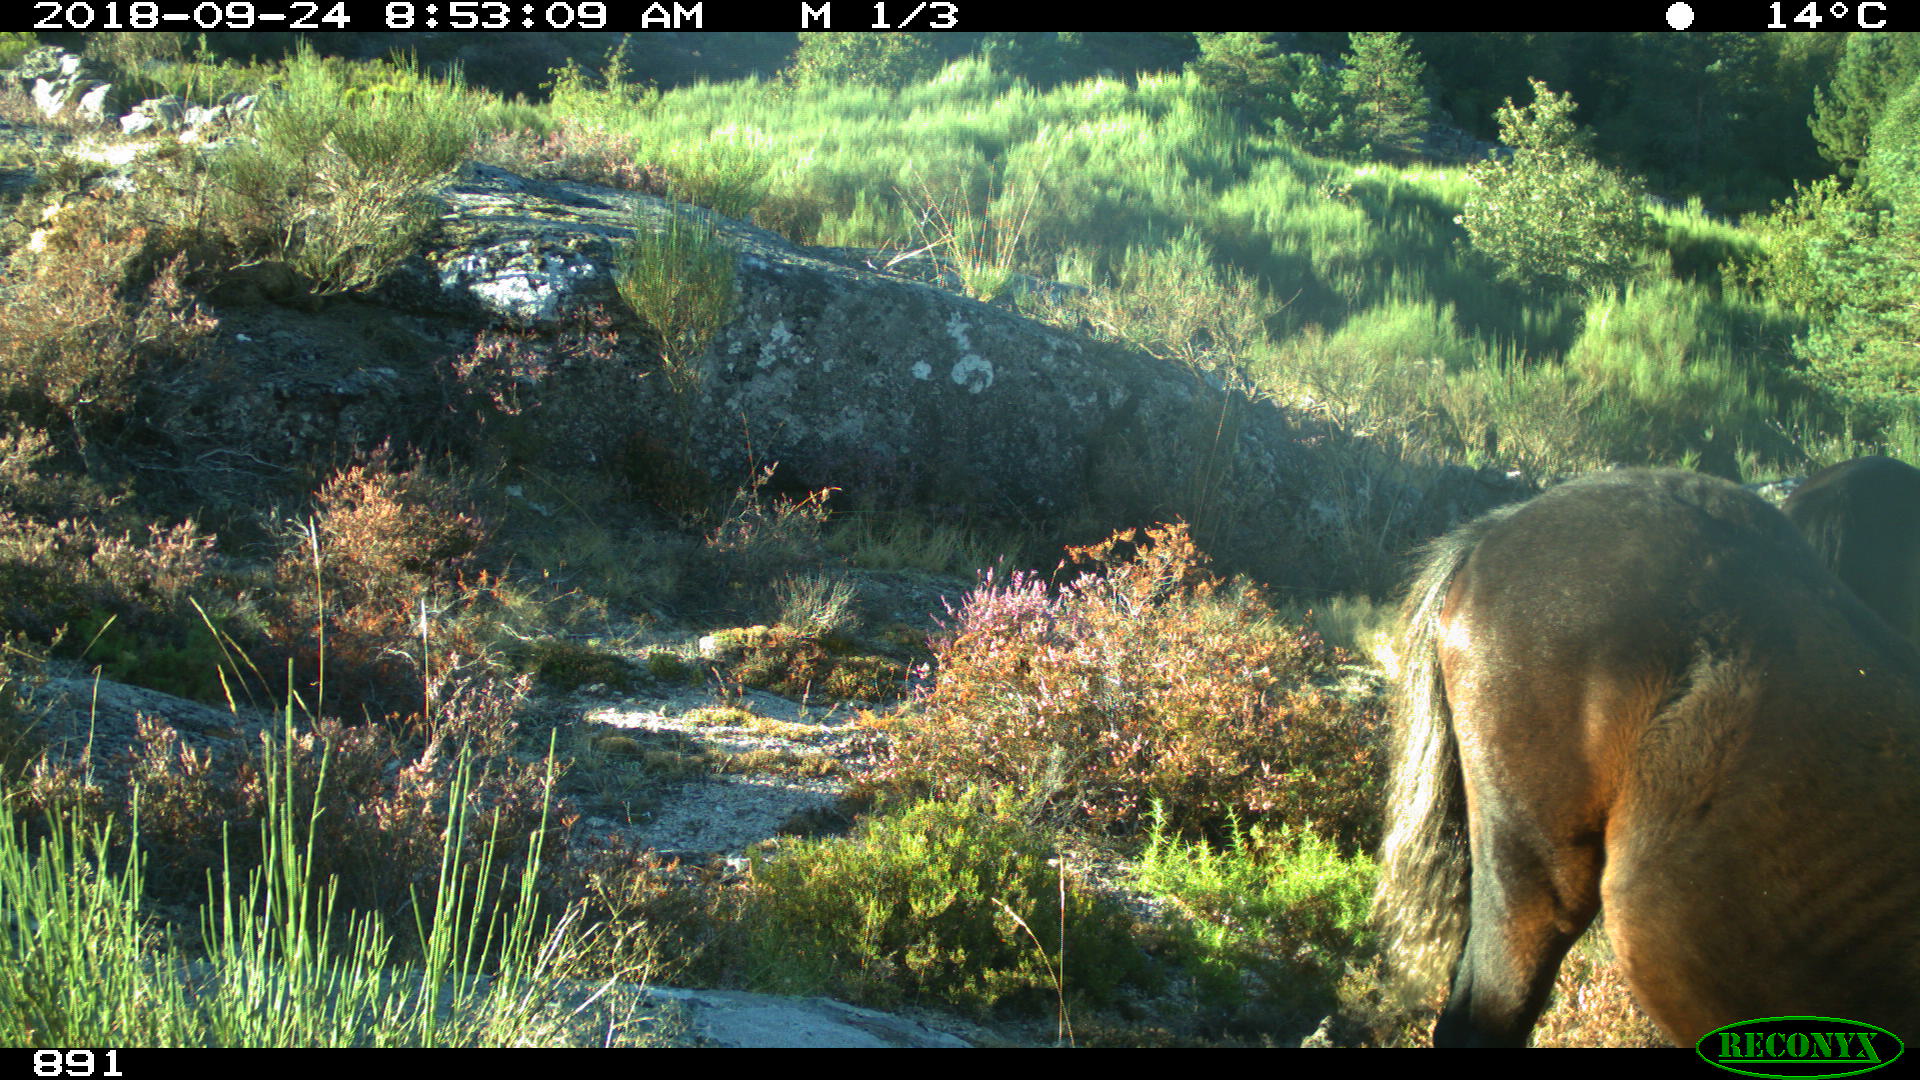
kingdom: Animalia
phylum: Chordata
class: Mammalia
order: Perissodactyla
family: Equidae
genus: Equus
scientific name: Equus caballus
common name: Horse
